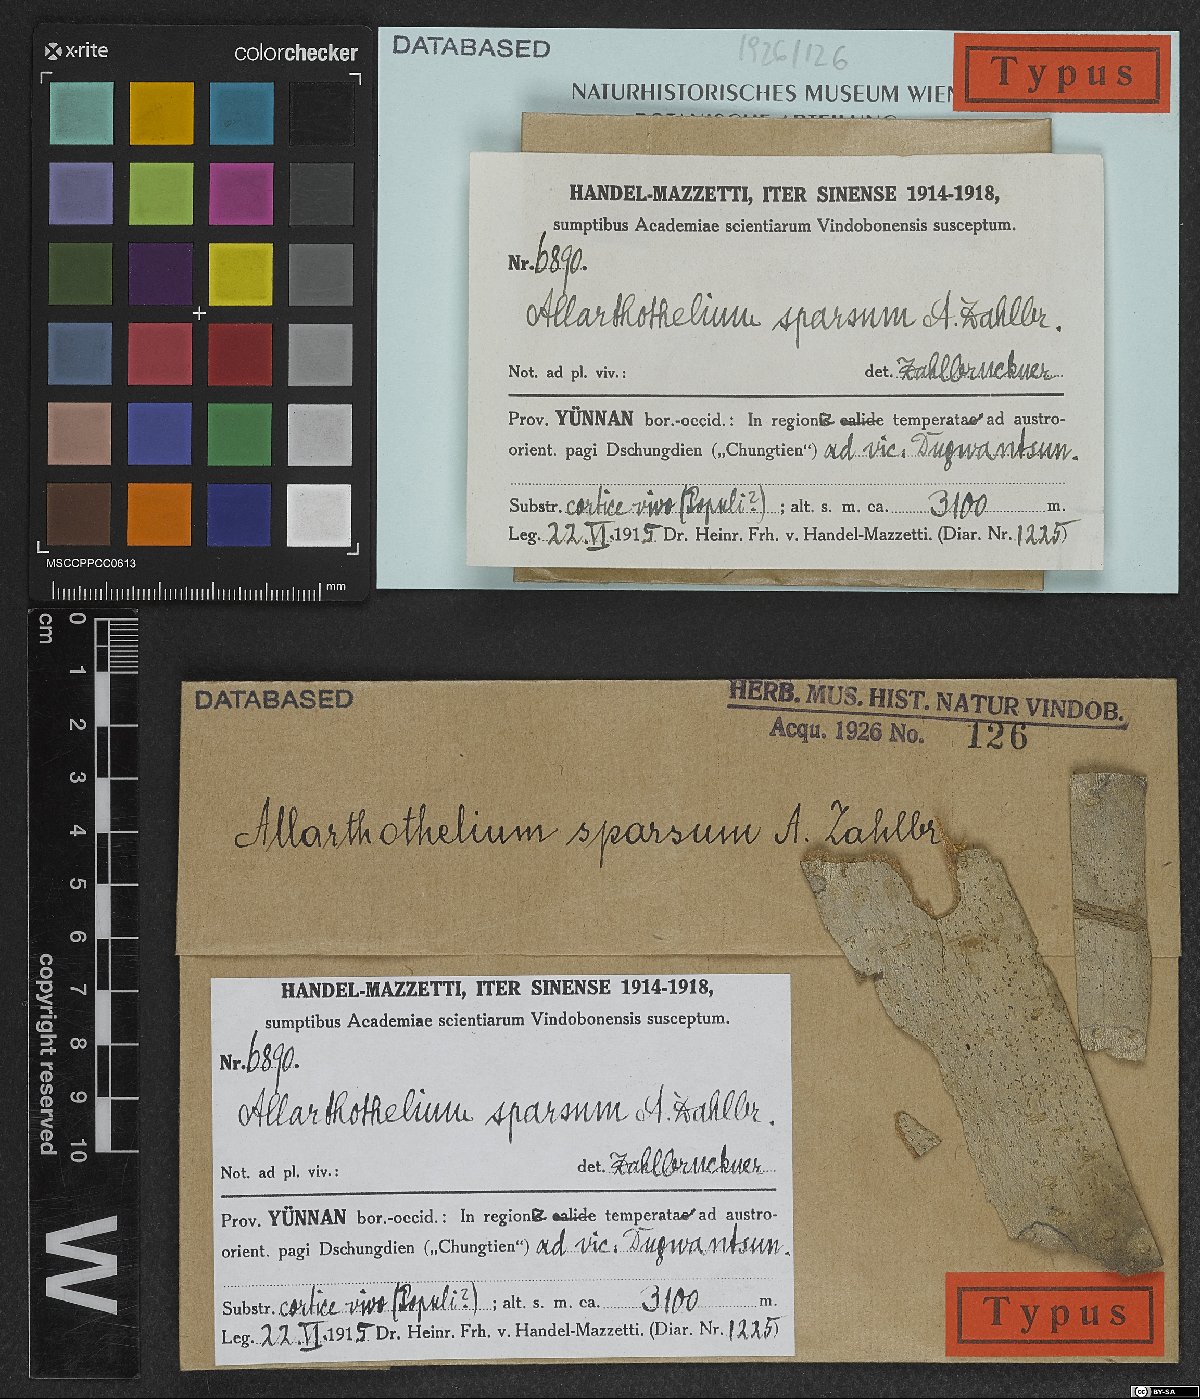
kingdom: Fungi
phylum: Ascomycota
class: Arthoniomycetes
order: Arthoniales
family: Arthoniaceae
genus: Allarthothelium
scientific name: Allarthothelium sparsum
